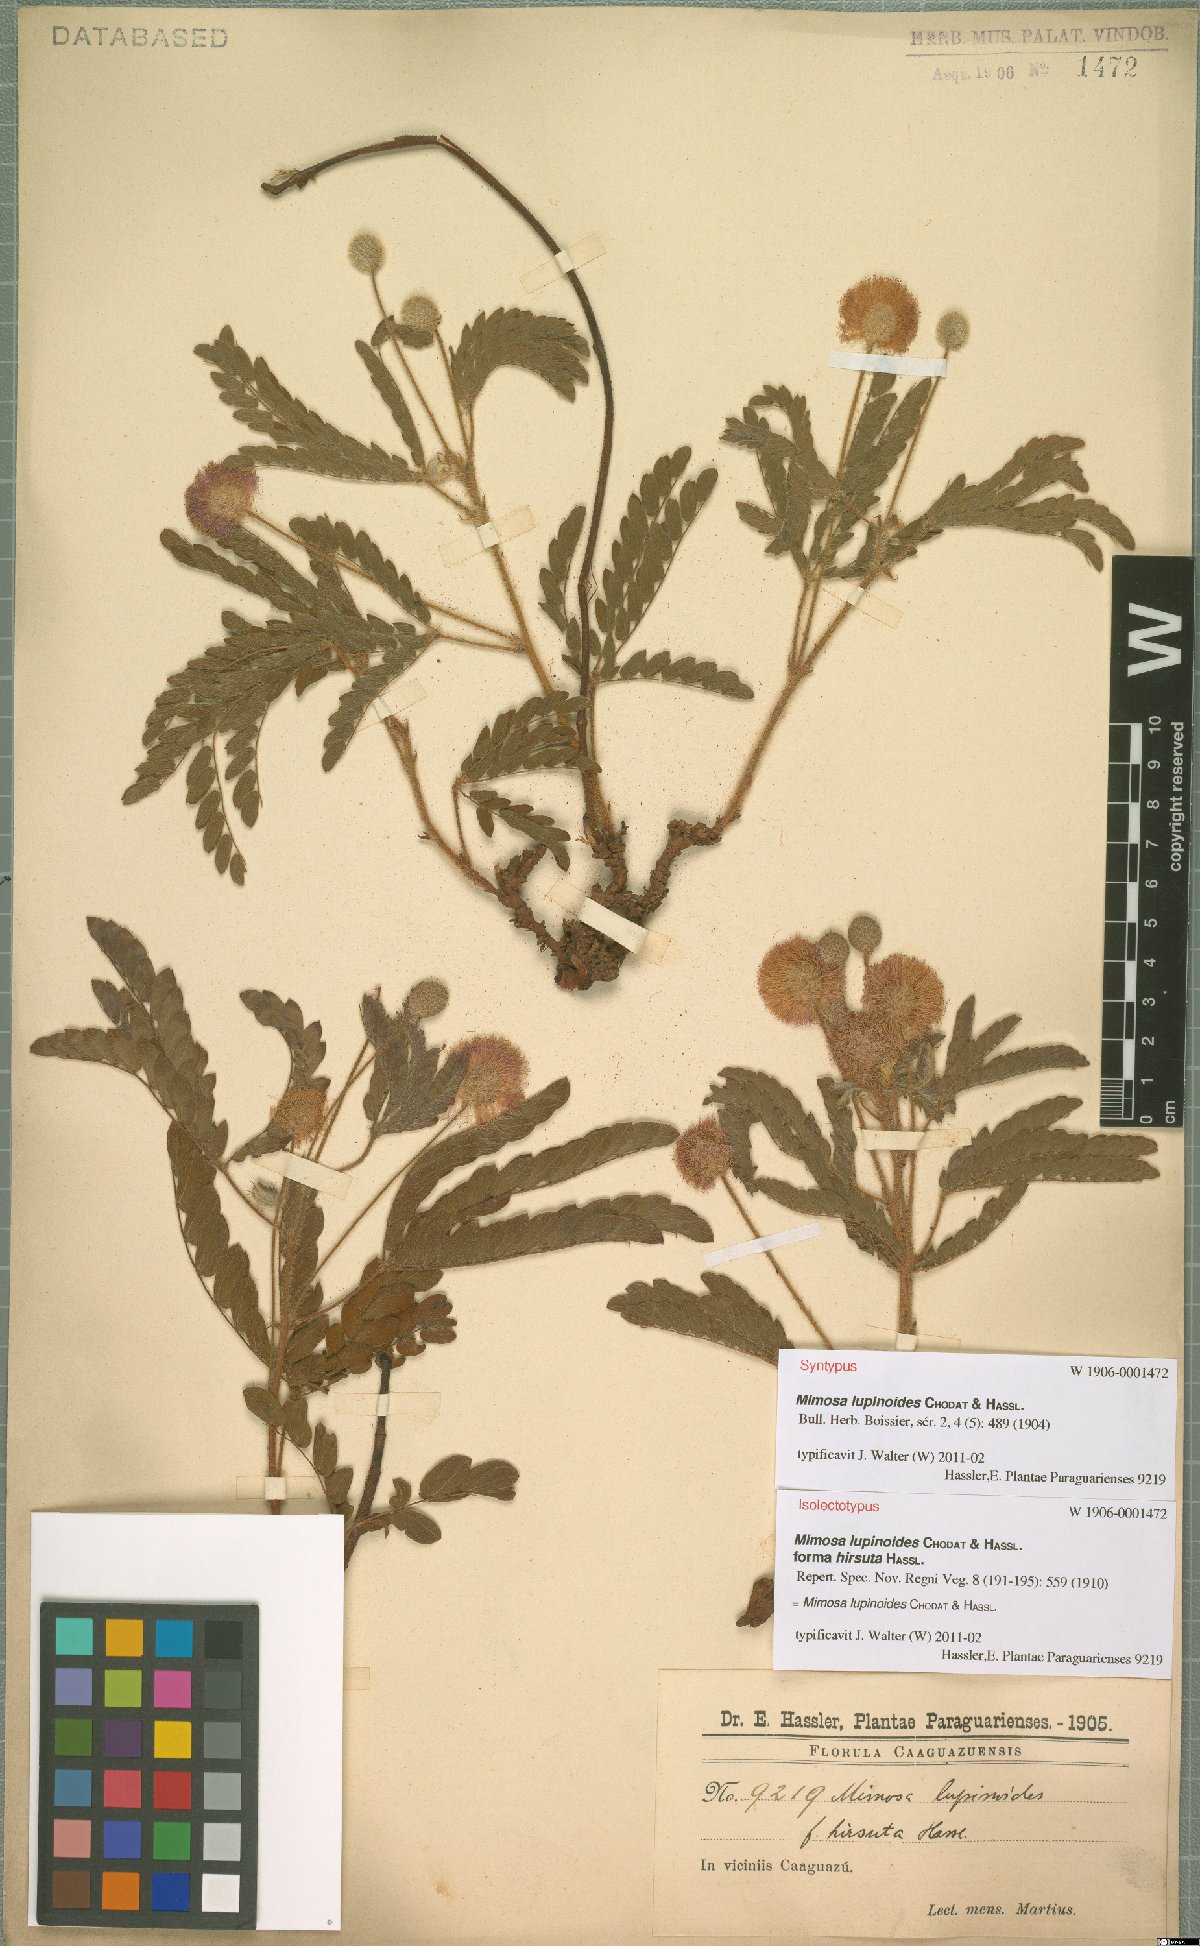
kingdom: Plantae
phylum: Tracheophyta
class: Magnoliopsida
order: Fabales
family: Fabaceae
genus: Mimosa
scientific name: Mimosa lupinoides
